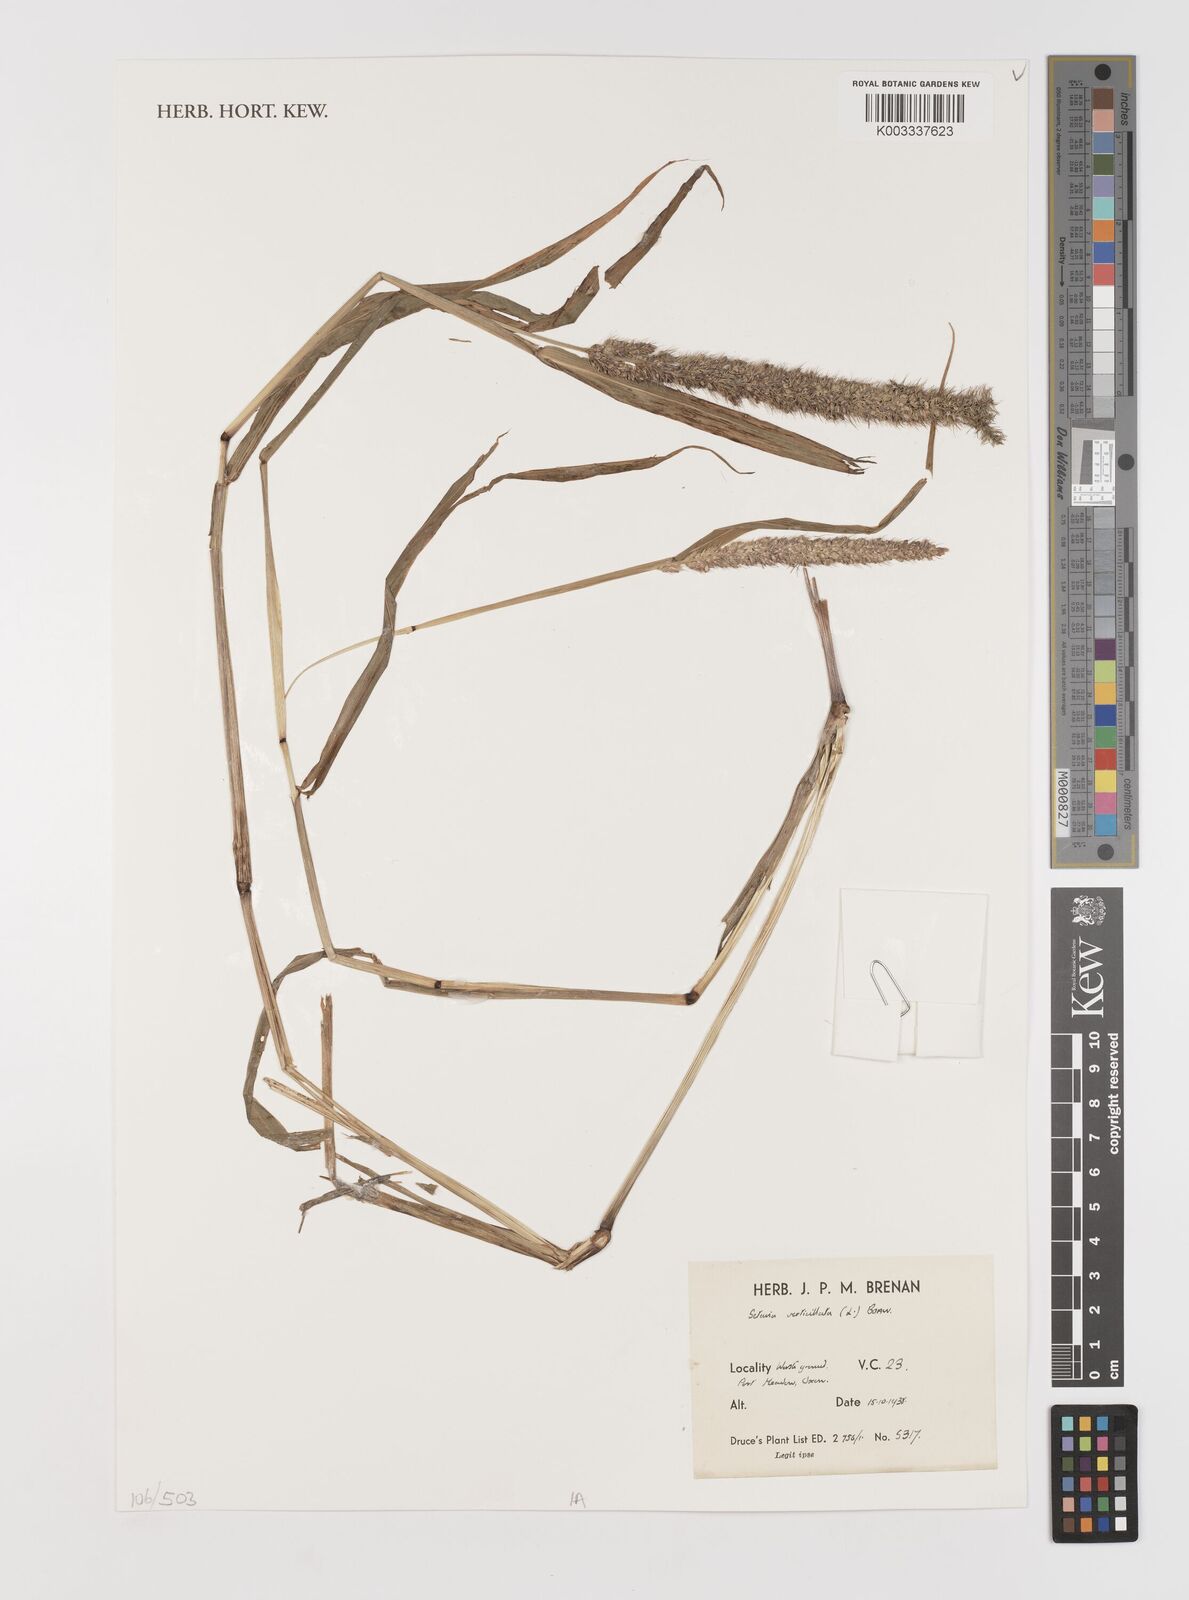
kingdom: Plantae
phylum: Tracheophyta
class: Liliopsida
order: Poales
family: Poaceae
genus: Setaria
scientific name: Setaria verticillata
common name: Hooked bristlegrass
